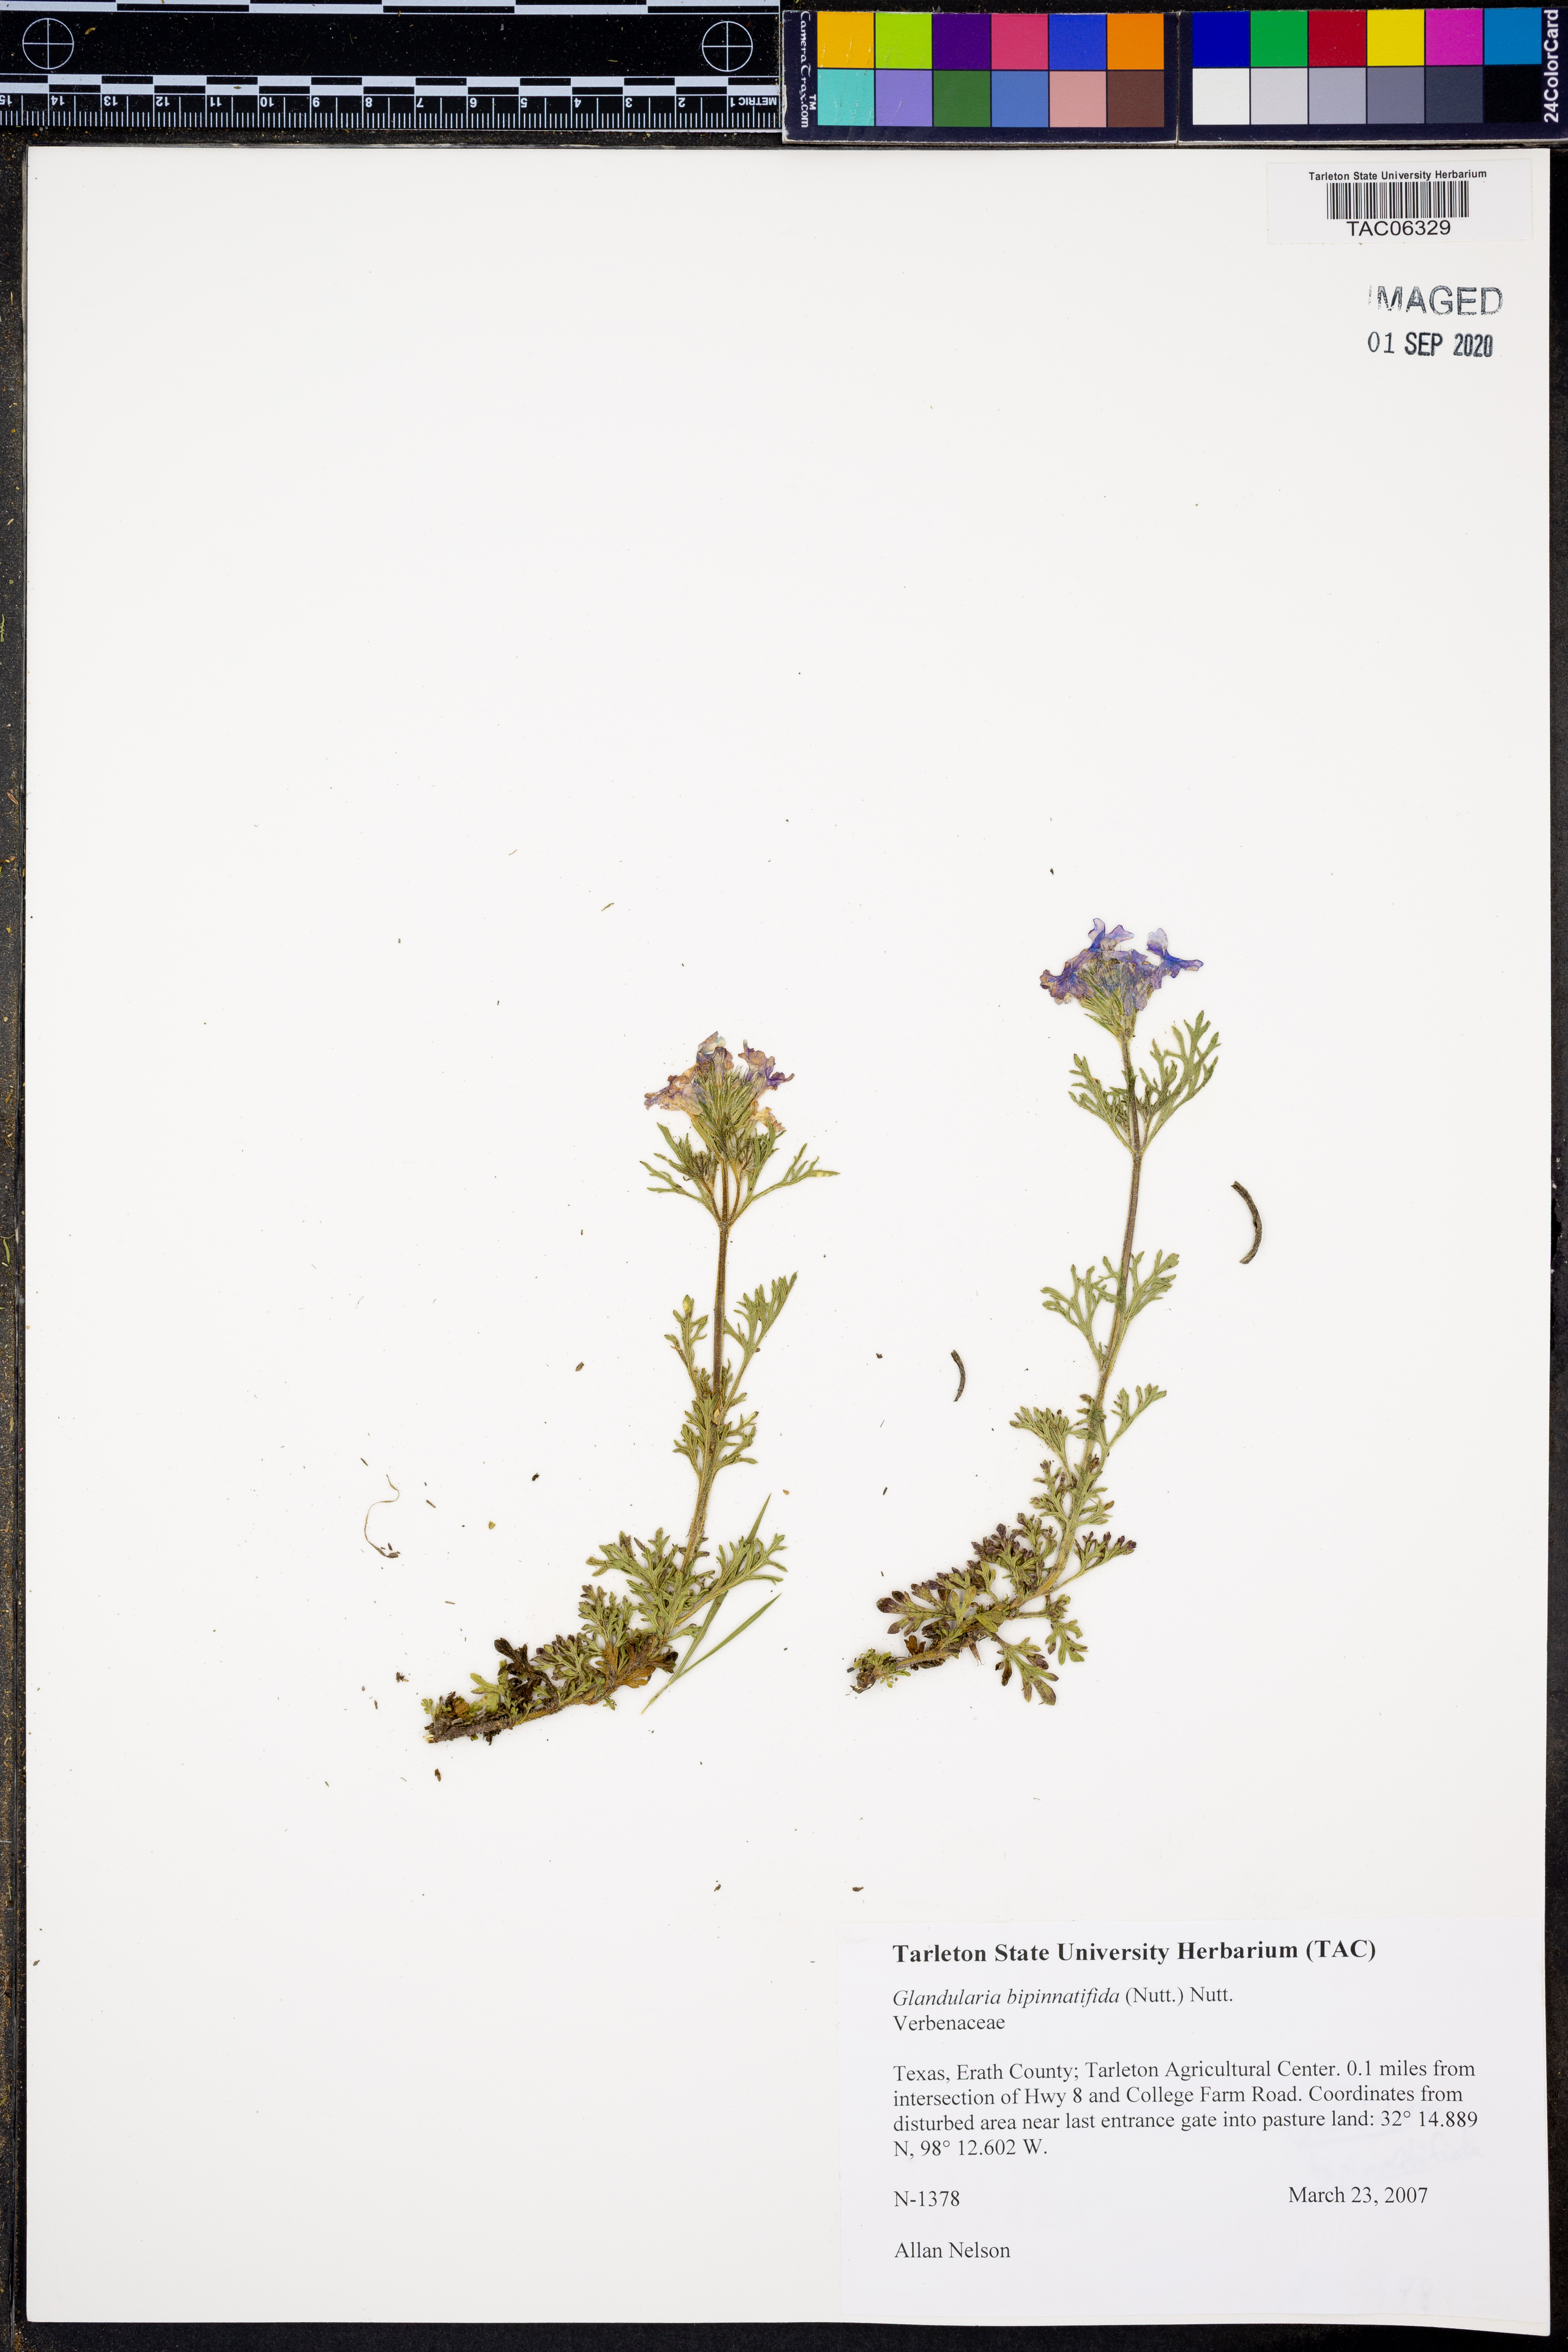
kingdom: Plantae
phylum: Tracheophyta
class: Magnoliopsida
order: Lamiales
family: Verbenaceae
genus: Verbena
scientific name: Verbena bipinnatifida
